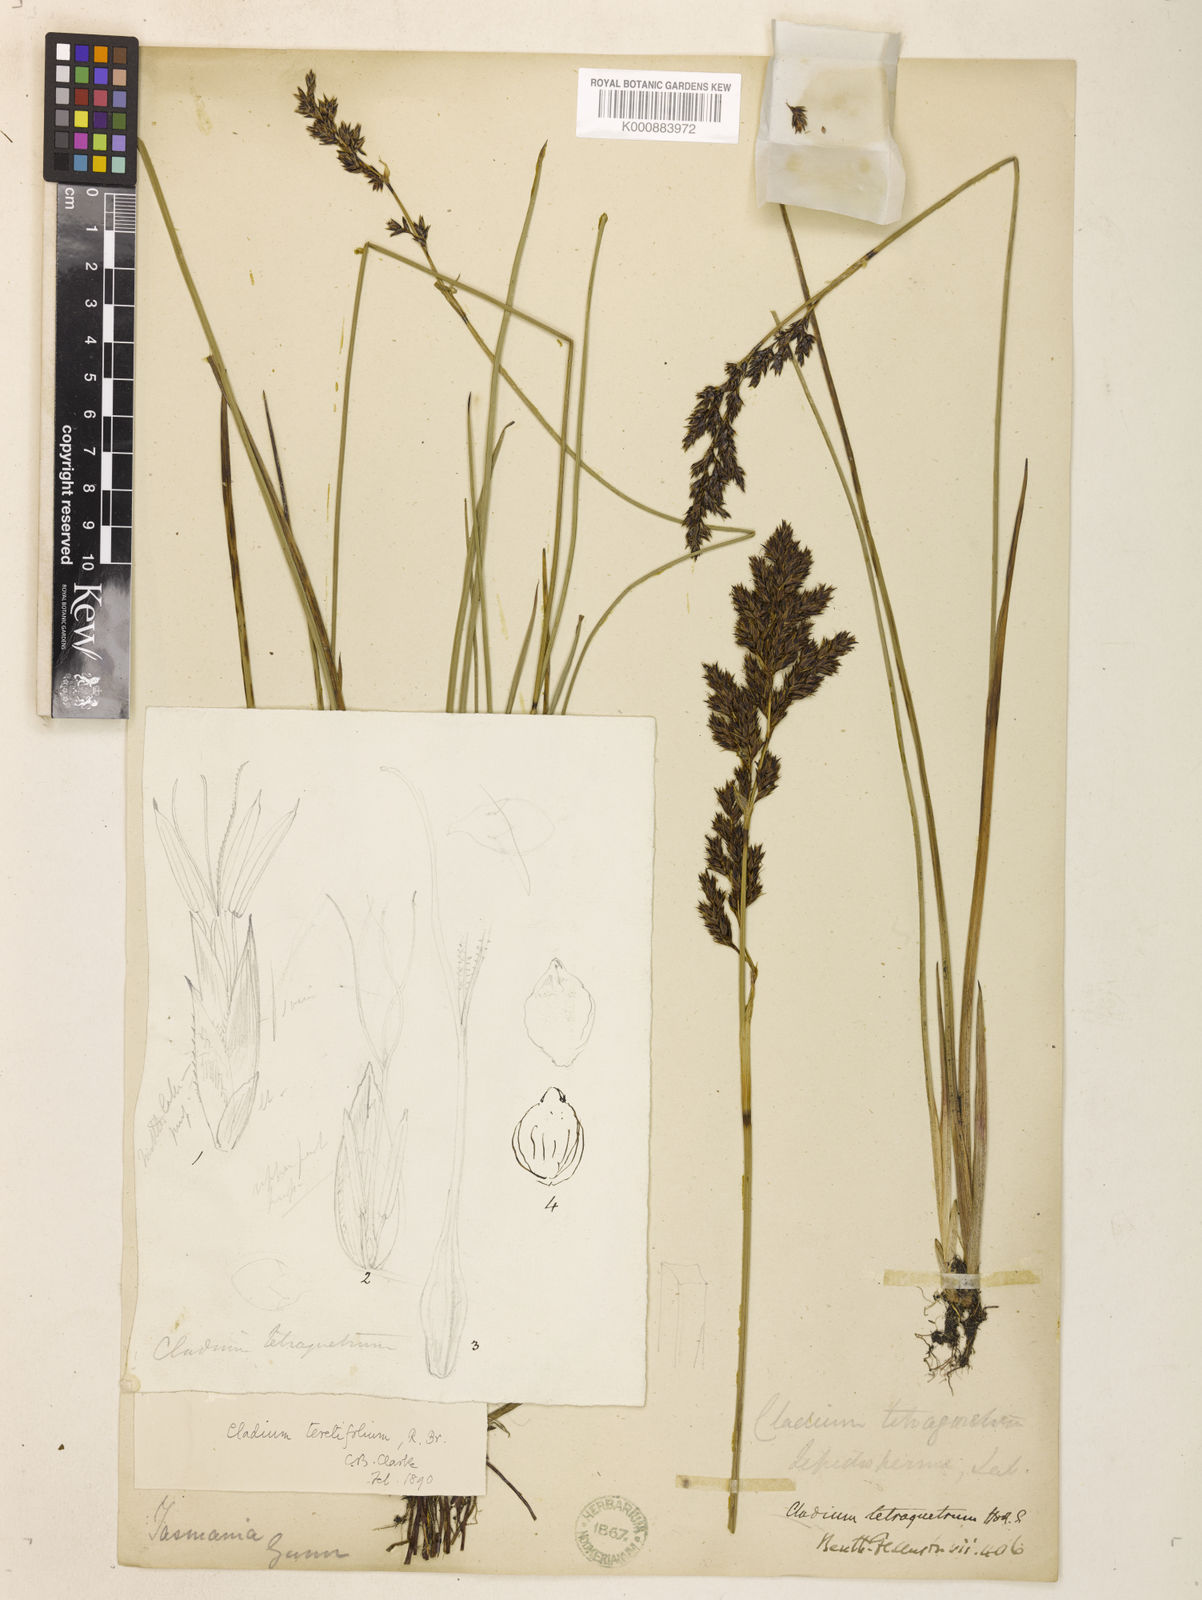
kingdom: Plantae
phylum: Tracheophyta
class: Liliopsida
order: Poales
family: Cyperaceae
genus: Machaerina
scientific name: Machaerina tetragona
